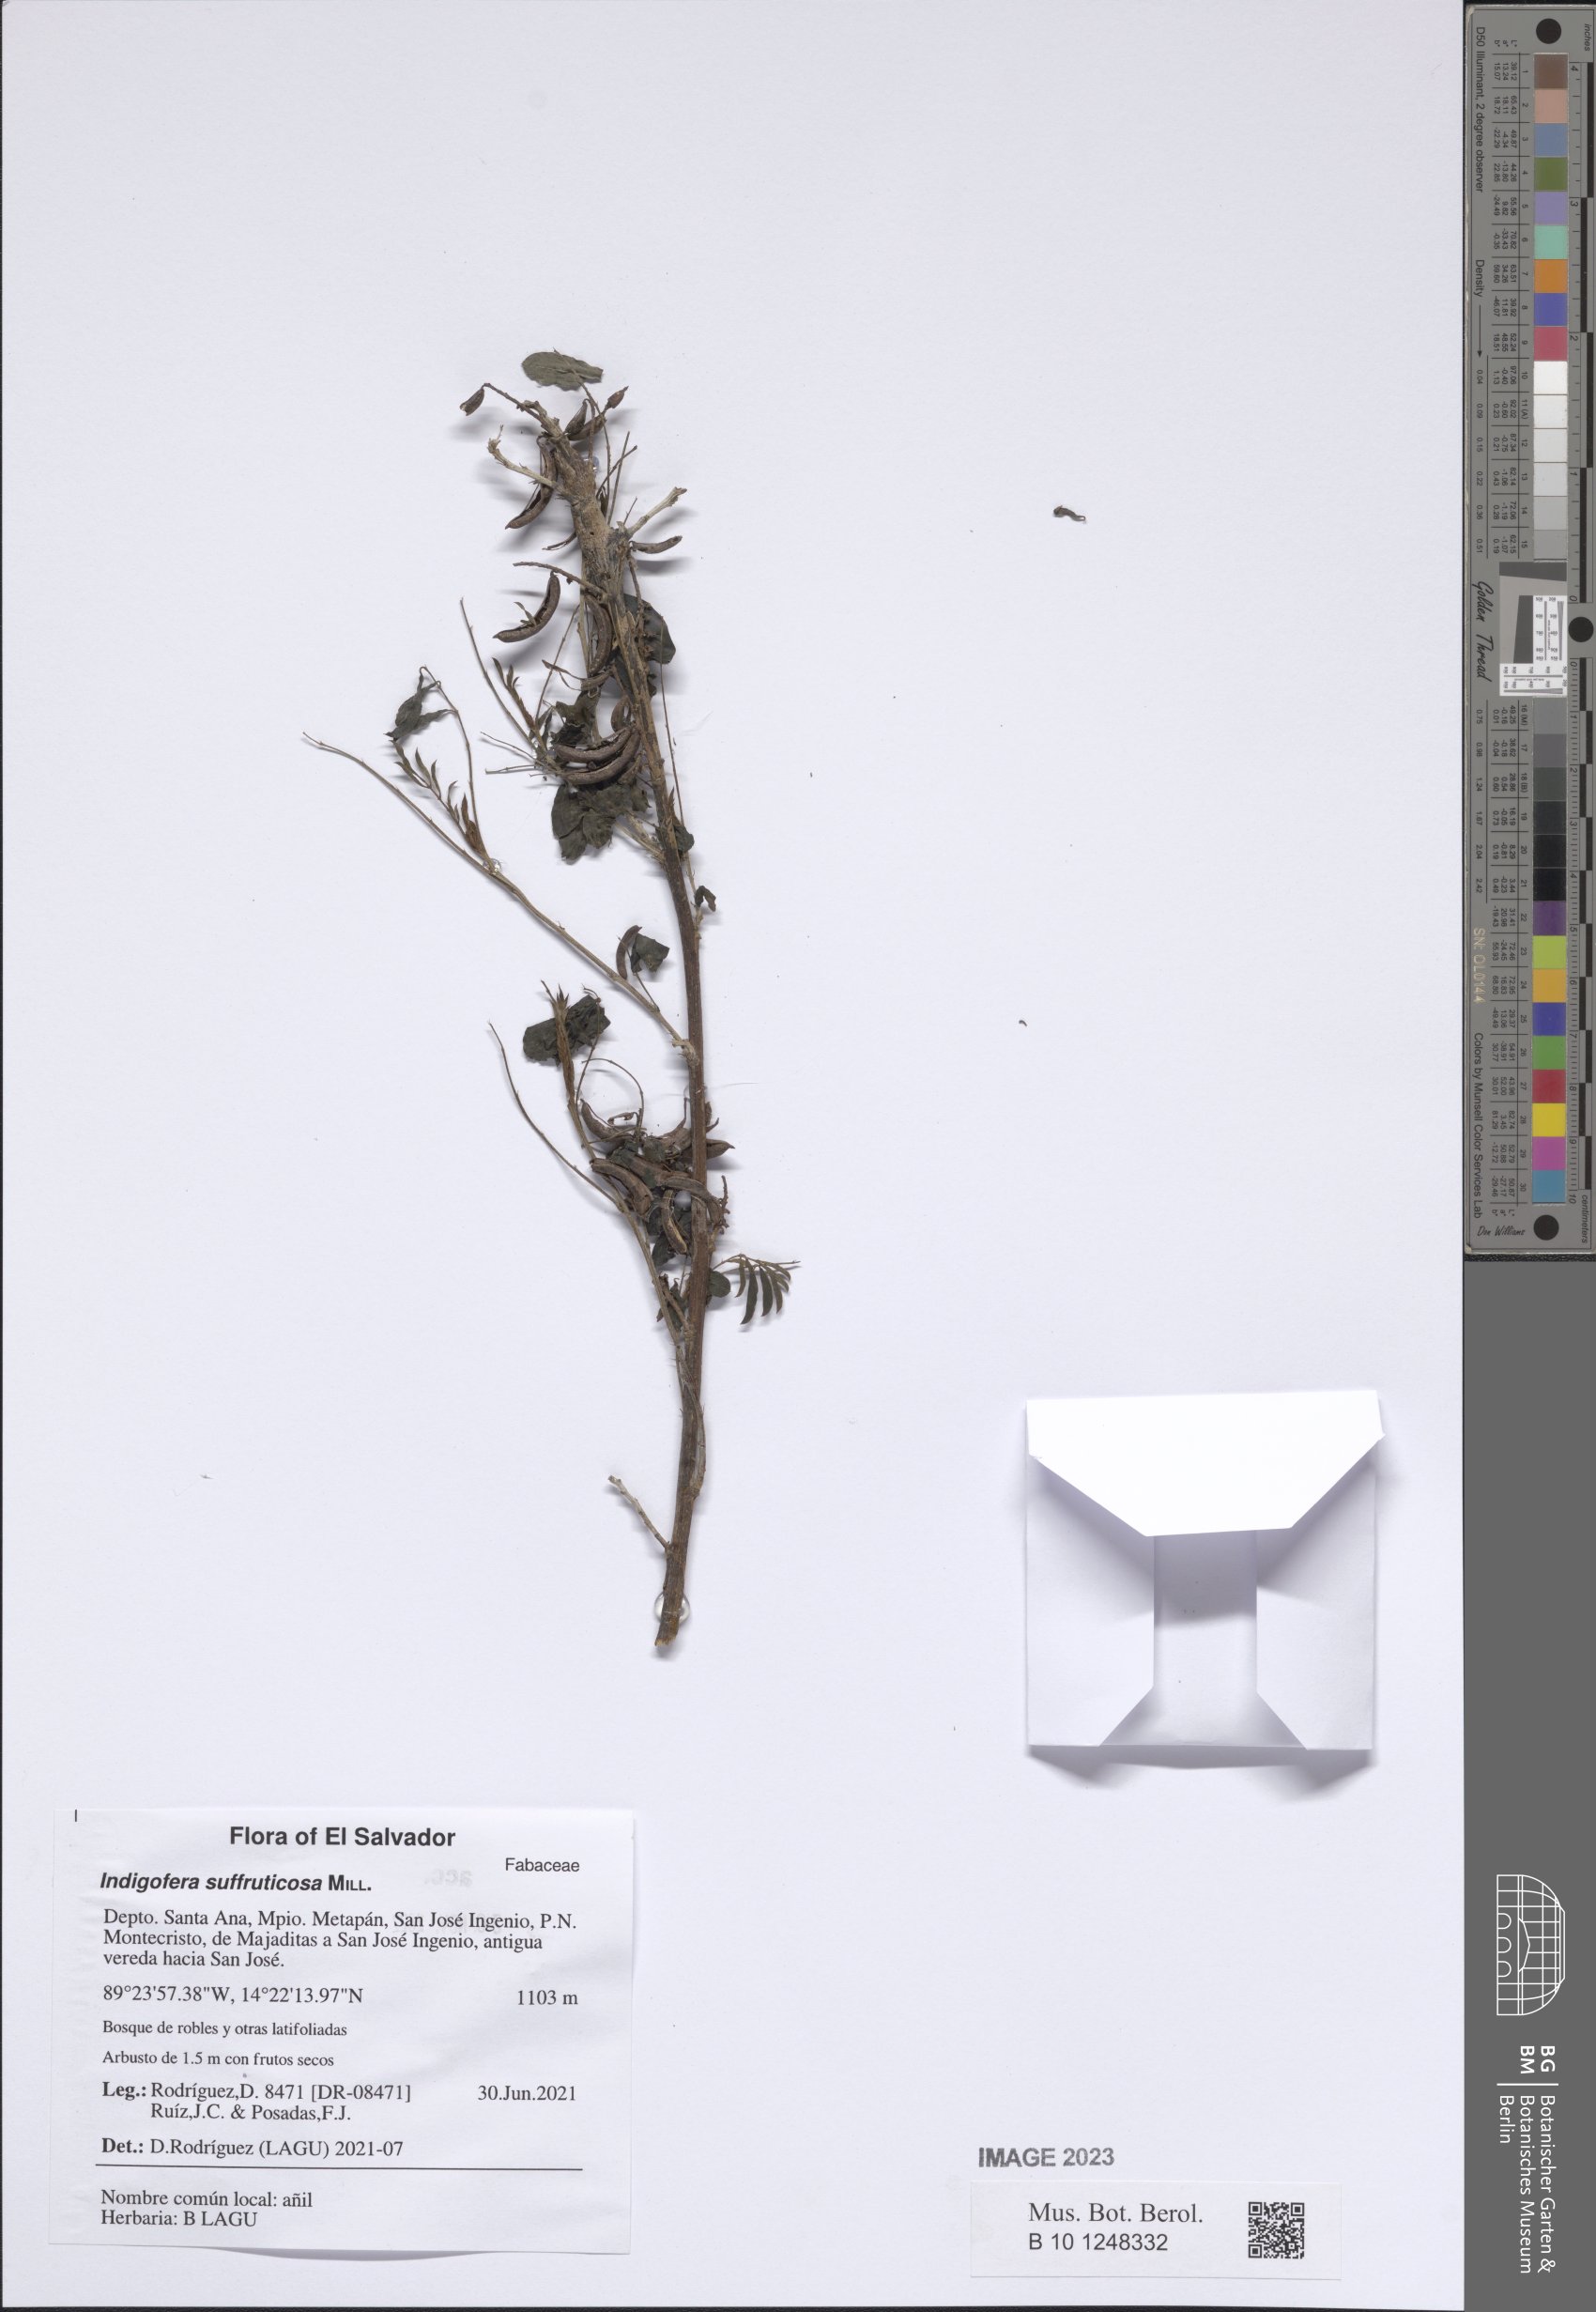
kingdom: Plantae
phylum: Tracheophyta
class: Magnoliopsida
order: Fabales
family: Fabaceae
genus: Indigofera
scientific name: Indigofera suffruticosa
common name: Anil de pasto
